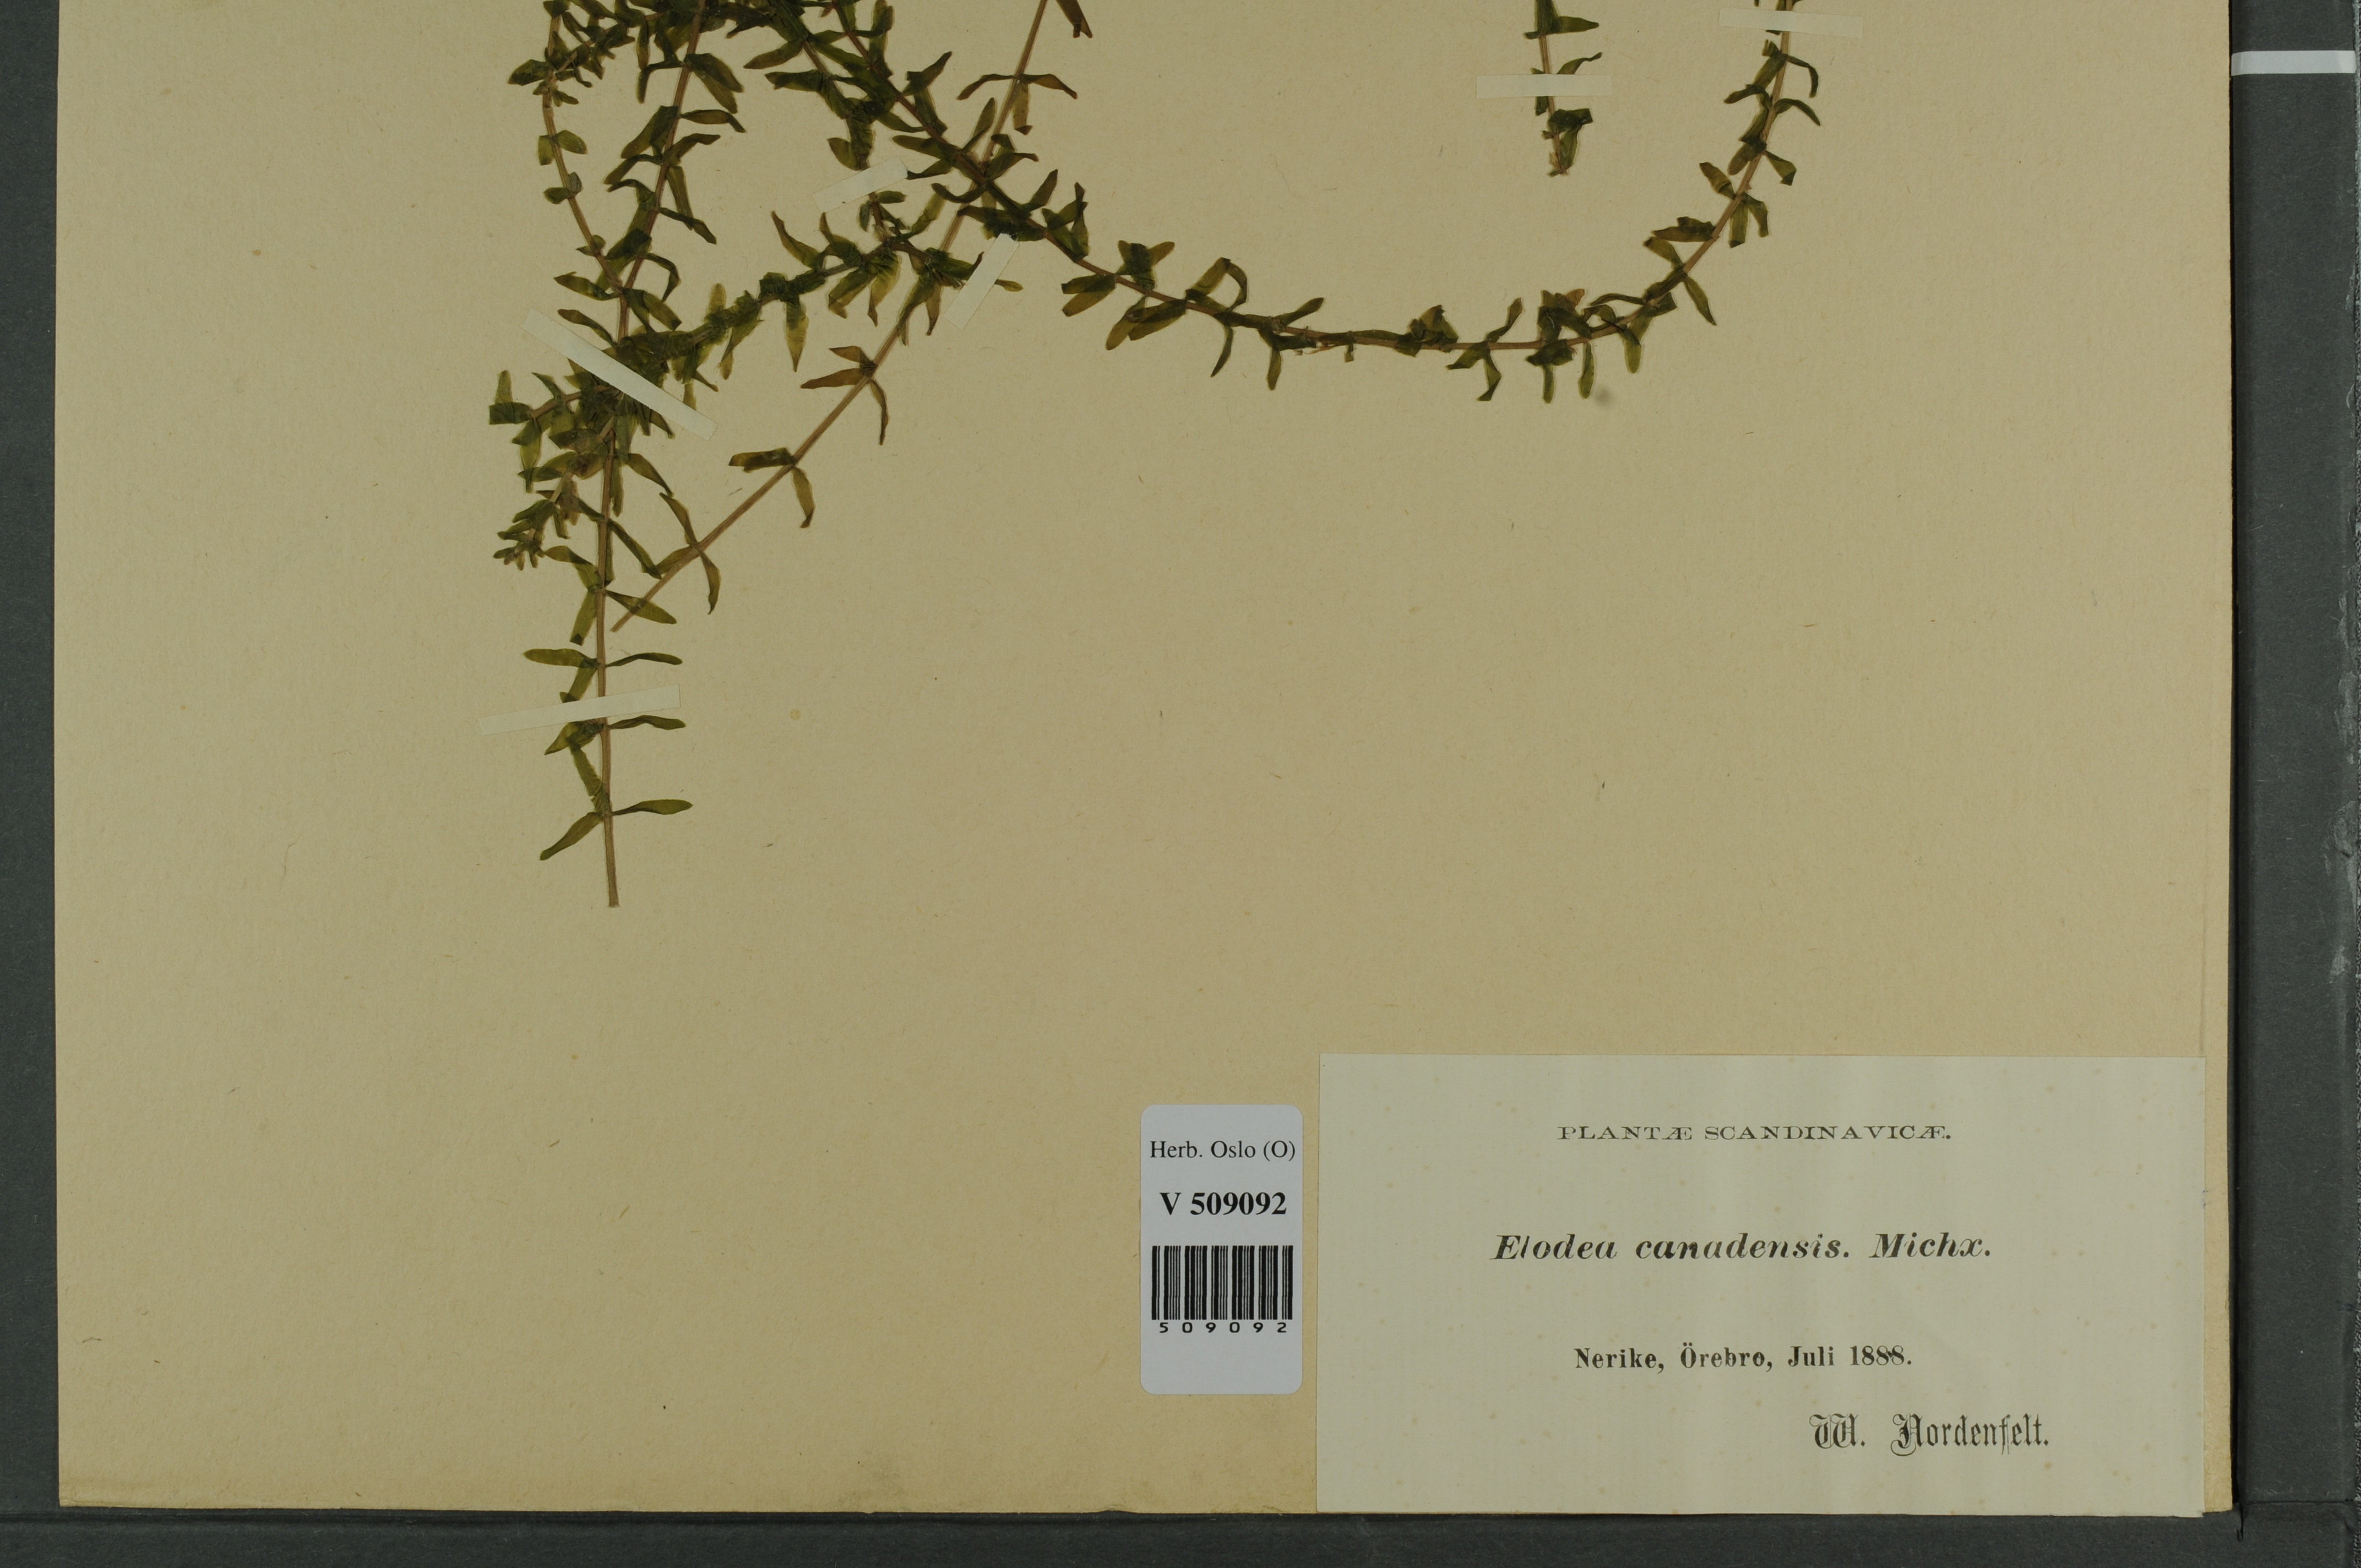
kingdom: Plantae
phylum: Tracheophyta
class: Liliopsida
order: Alismatales
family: Hydrocharitaceae
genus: Elodea
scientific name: Elodea canadensis
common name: Canadian waterweed
